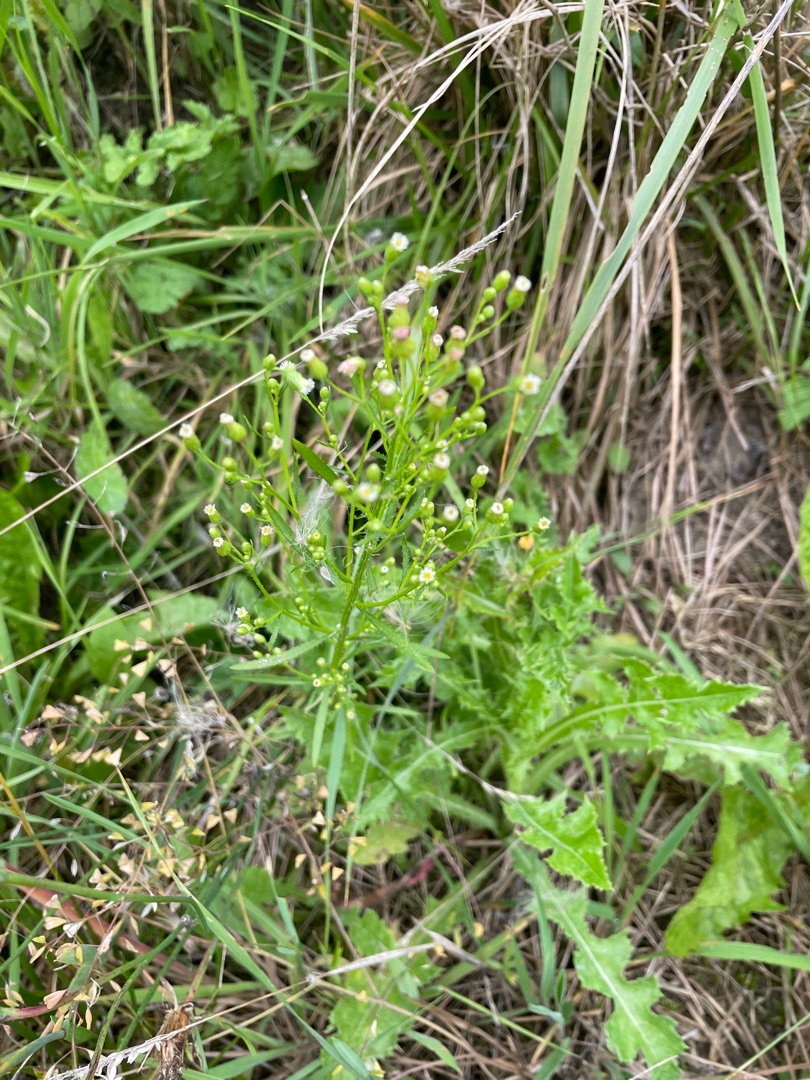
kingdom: Plantae
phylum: Tracheophyta
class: Magnoliopsida
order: Asterales
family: Asteraceae
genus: Erigeron
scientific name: Erigeron canadensis
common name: Kanadisk bakkestjerne
